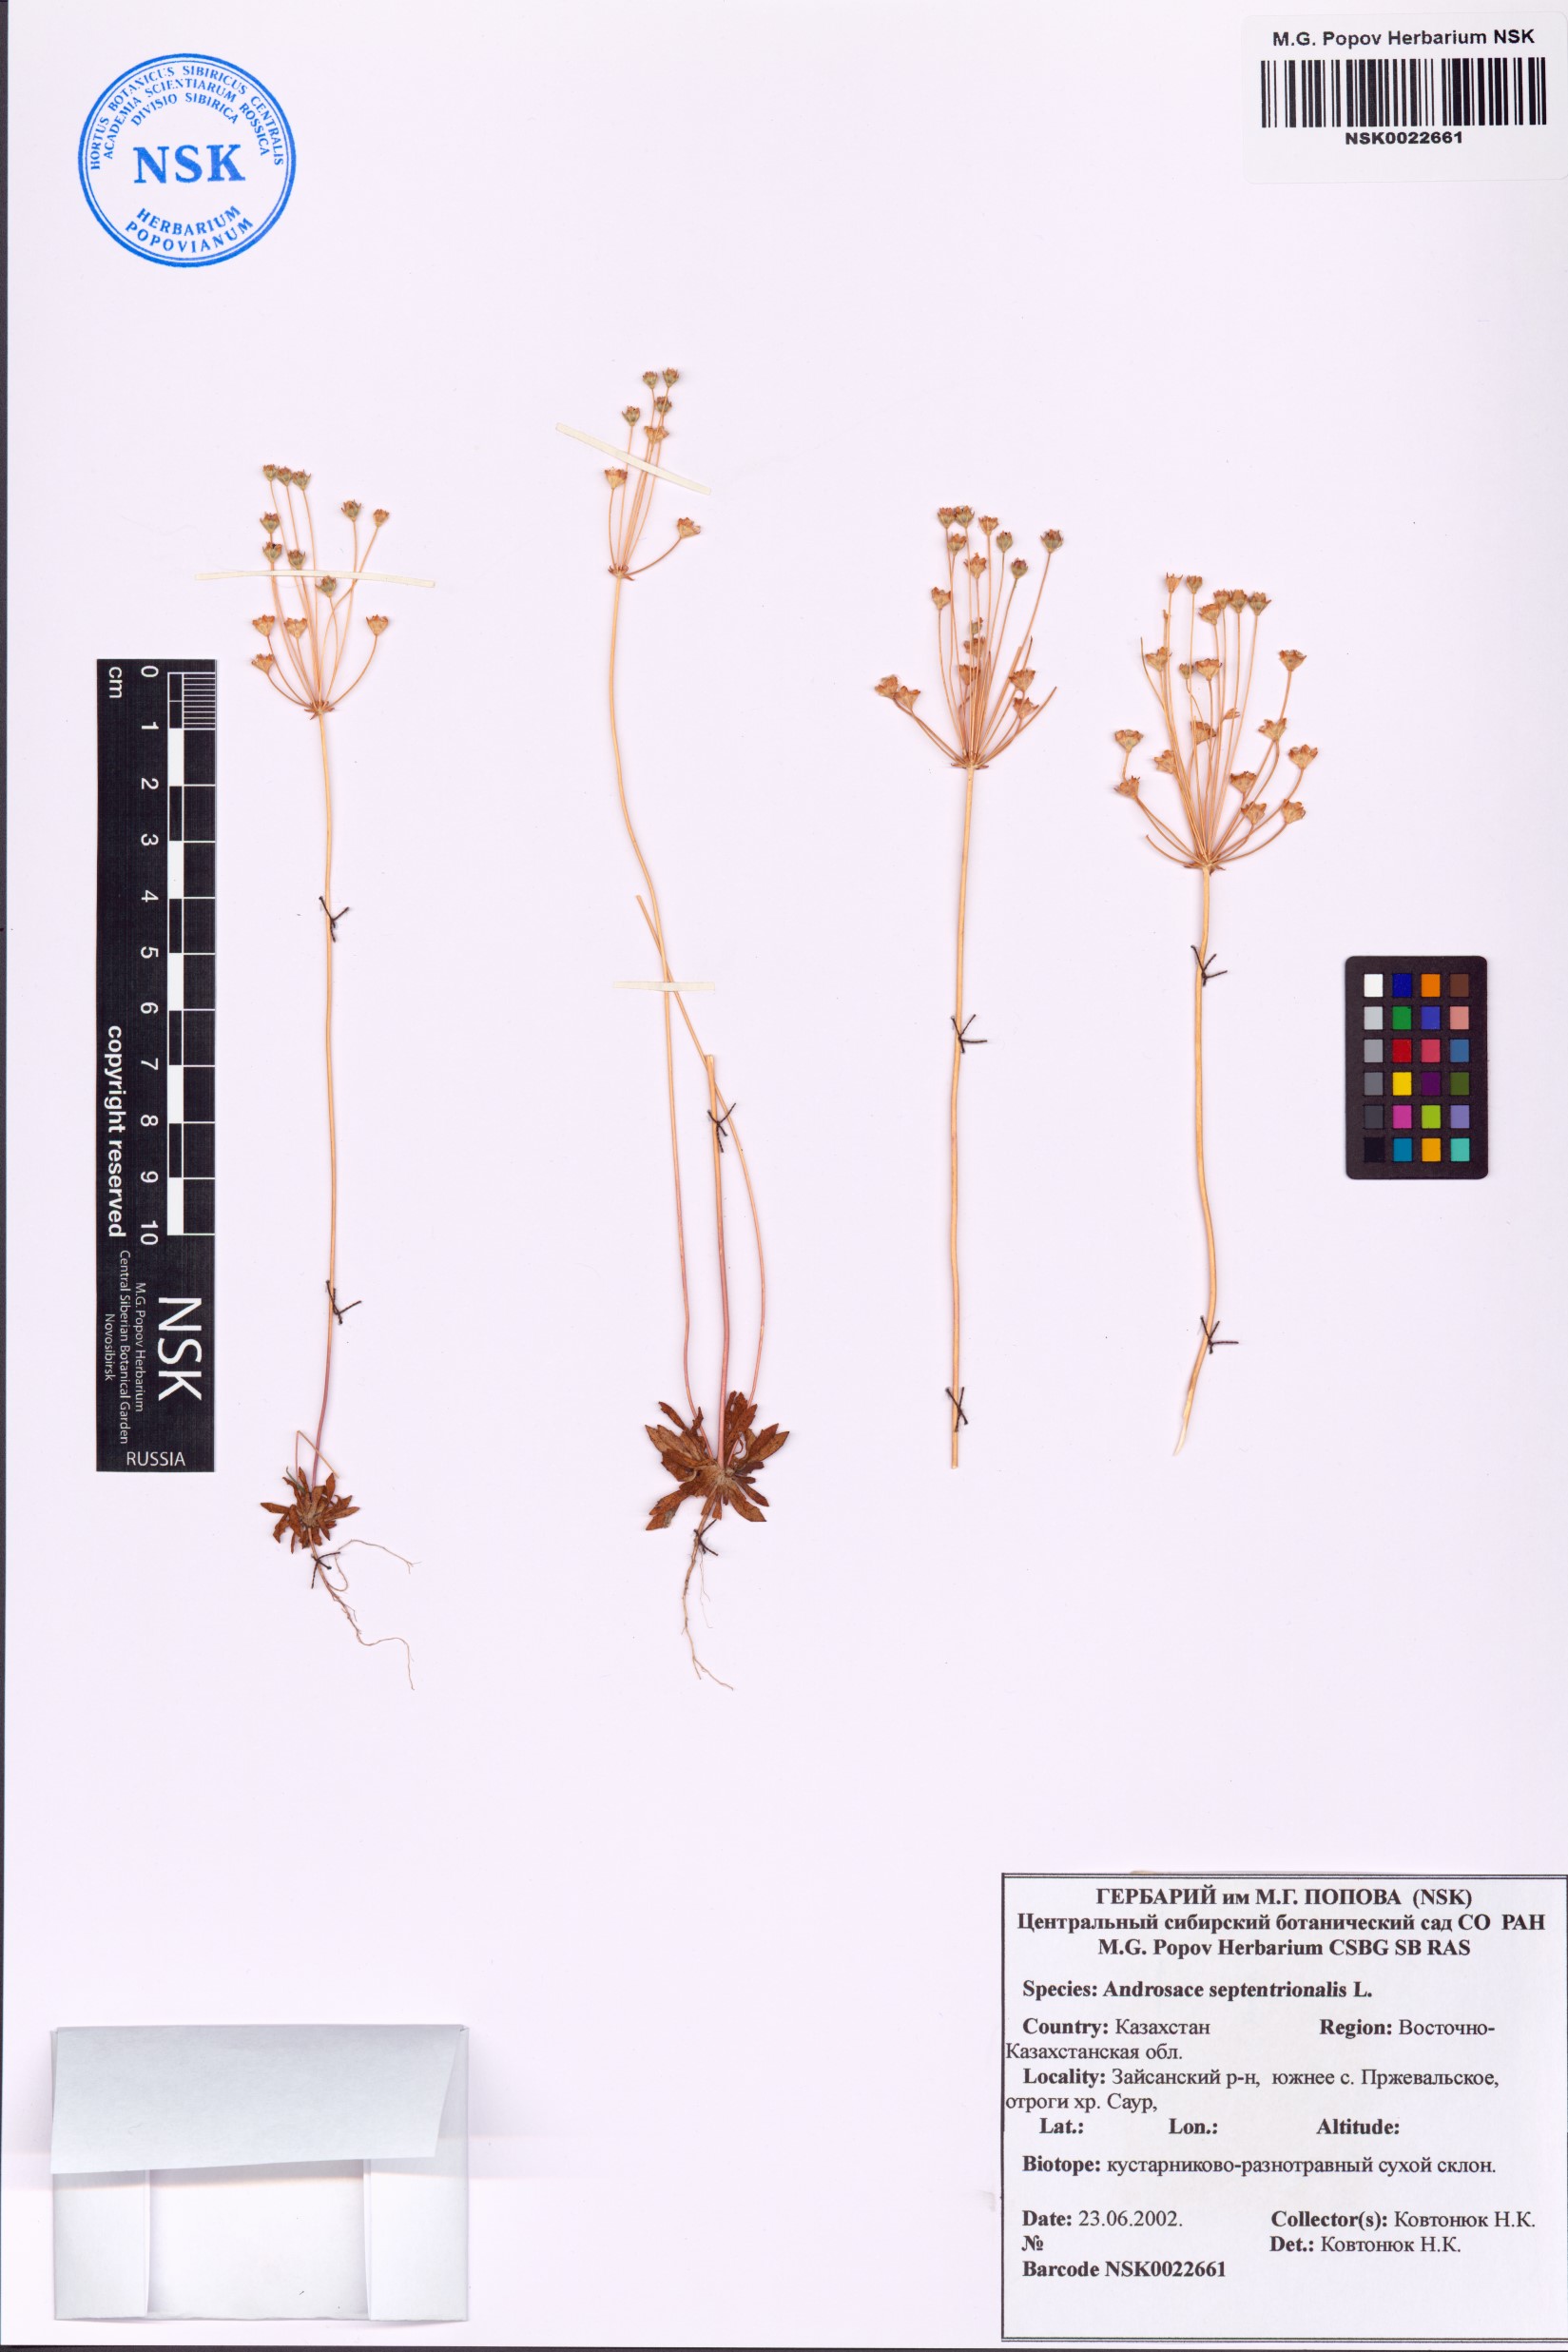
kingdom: Plantae
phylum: Tracheophyta
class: Magnoliopsida
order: Ericales
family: Primulaceae
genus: Androsace
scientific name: Androsace septentrionalis
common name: Hairy northern fairy-candelabra
